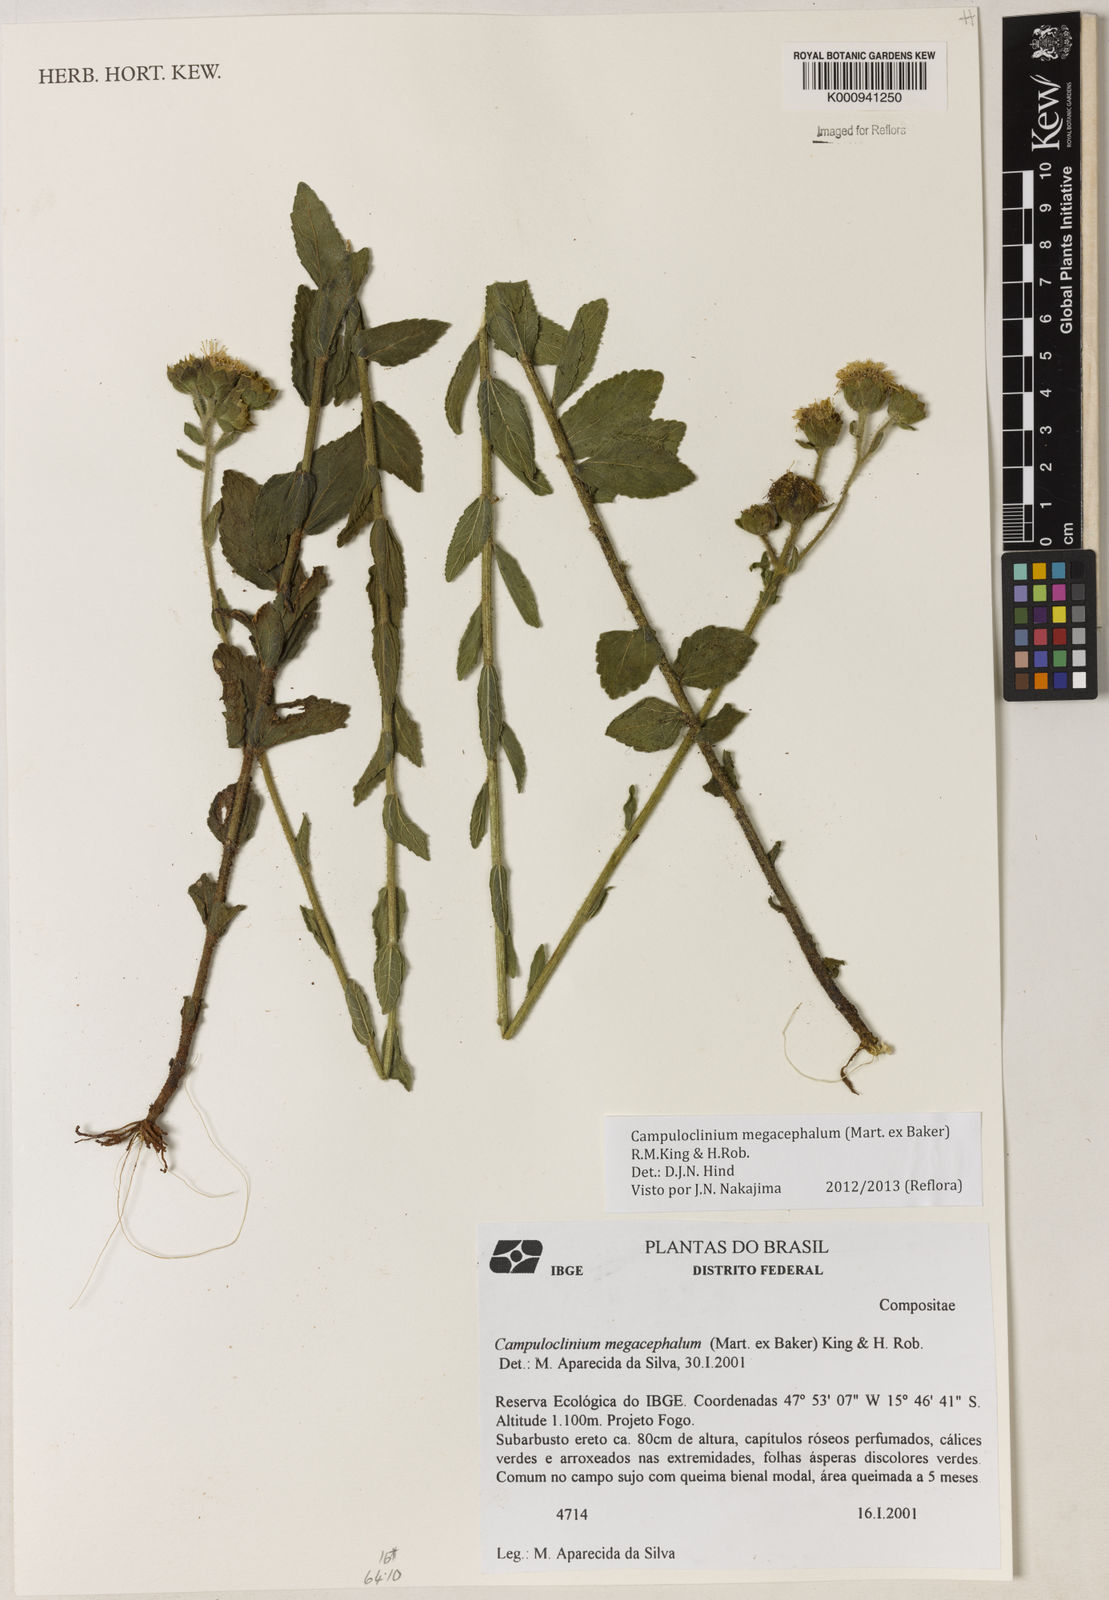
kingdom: Plantae
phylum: Tracheophyta
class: Magnoliopsida
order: Asterales
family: Asteraceae
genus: Campuloclinium
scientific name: Campuloclinium megacephalum
